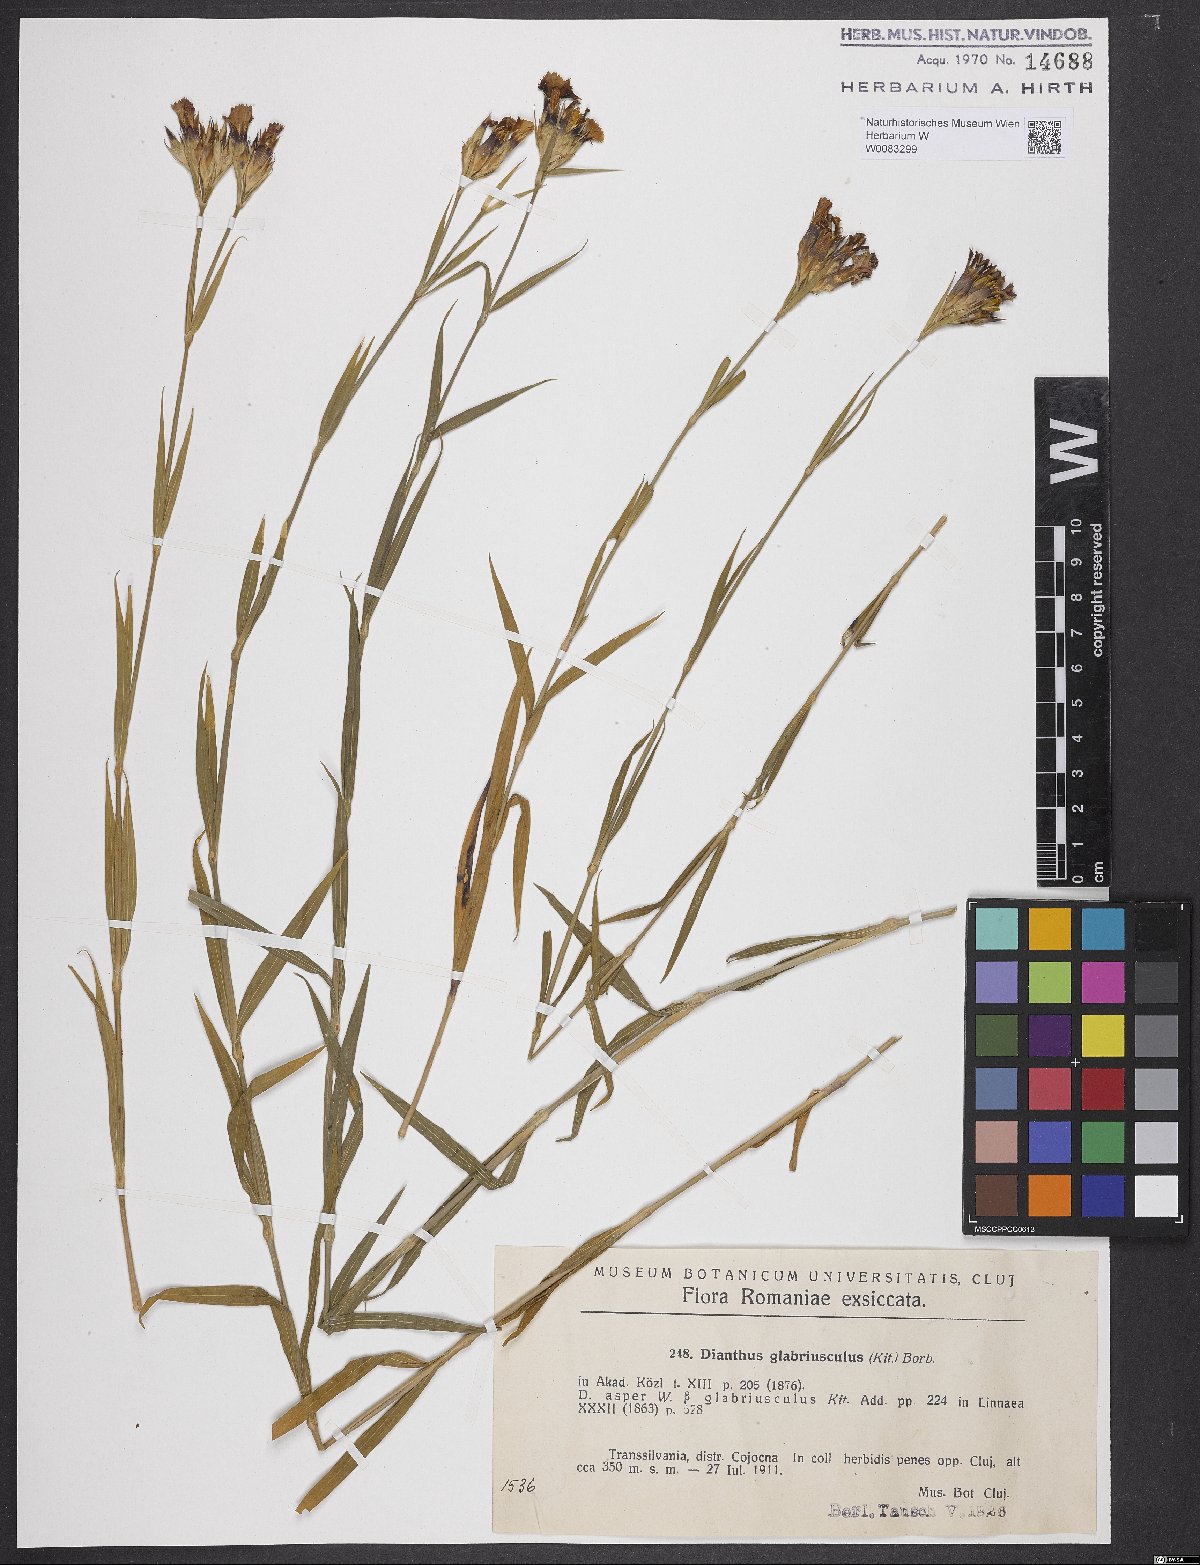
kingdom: Plantae
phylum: Tracheophyta
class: Magnoliopsida
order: Caryophyllales
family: Caryophyllaceae
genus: Dianthus
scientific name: Dianthus collinus
